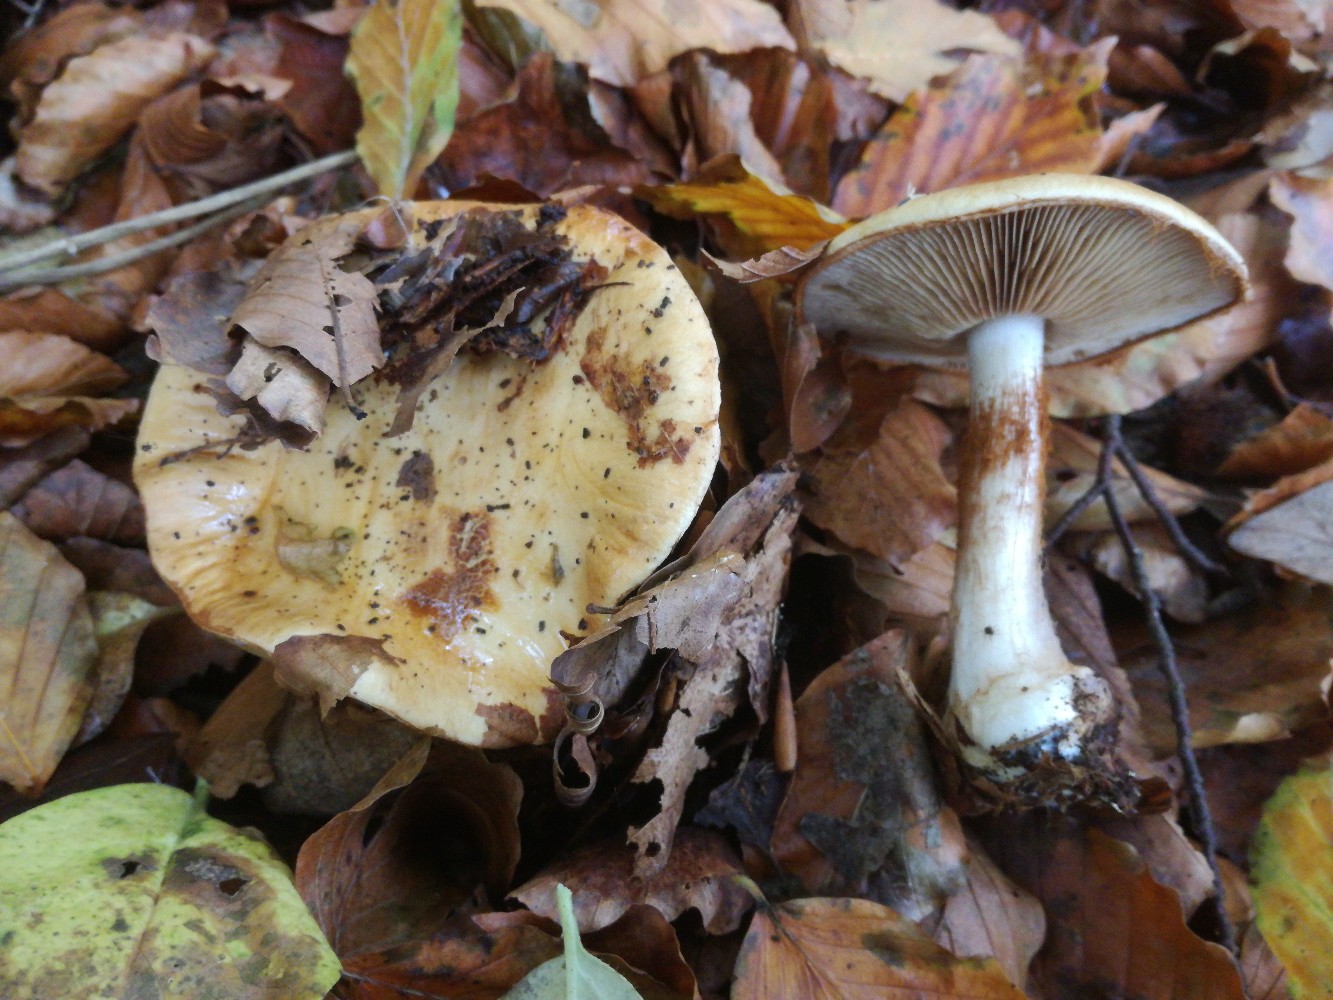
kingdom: Fungi
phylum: Basidiomycota
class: Agaricomycetes
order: Agaricales
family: Cortinariaceae
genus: Cortinarius
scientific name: Cortinarius anserinus
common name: bøge-slørhat
